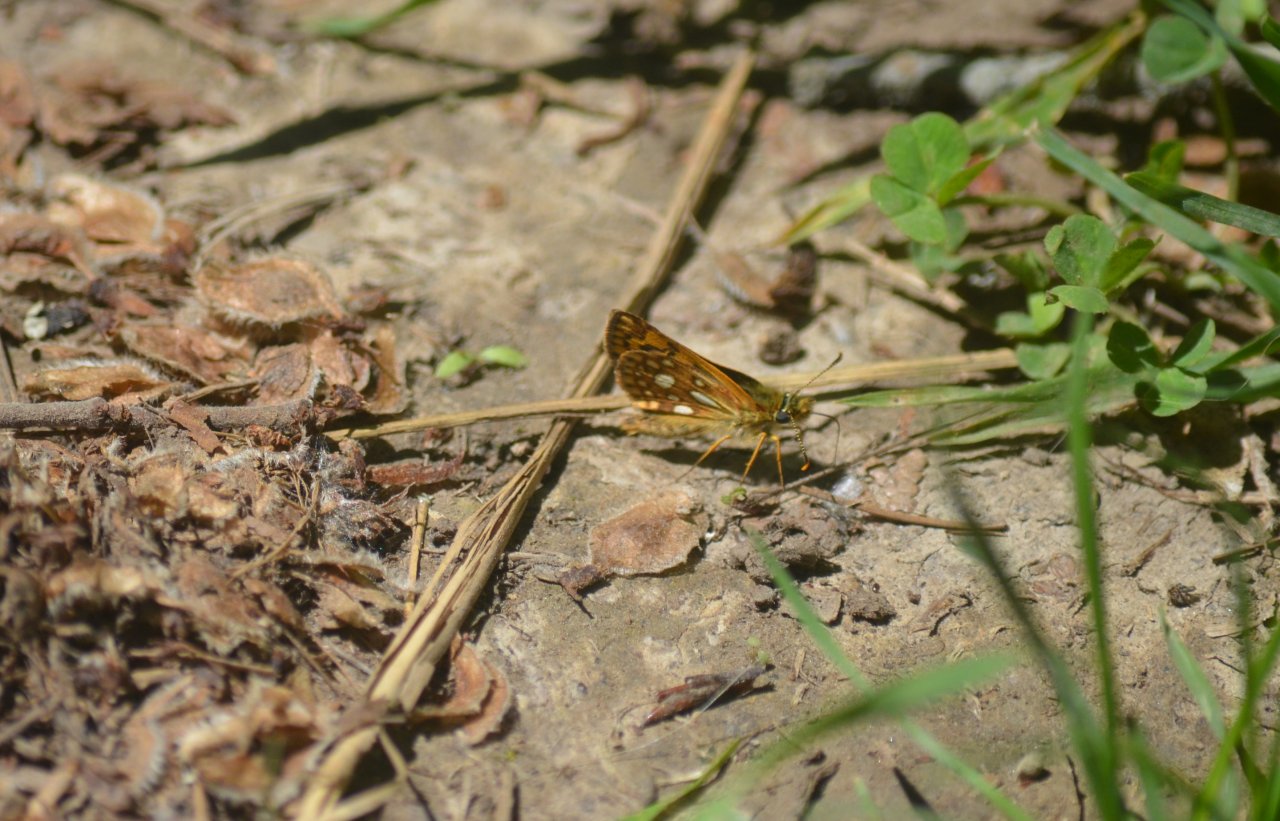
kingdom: Animalia
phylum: Arthropoda
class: Insecta
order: Lepidoptera
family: Hesperiidae
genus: Carterocephalus
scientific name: Carterocephalus palaemon
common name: Chequered Skipper
